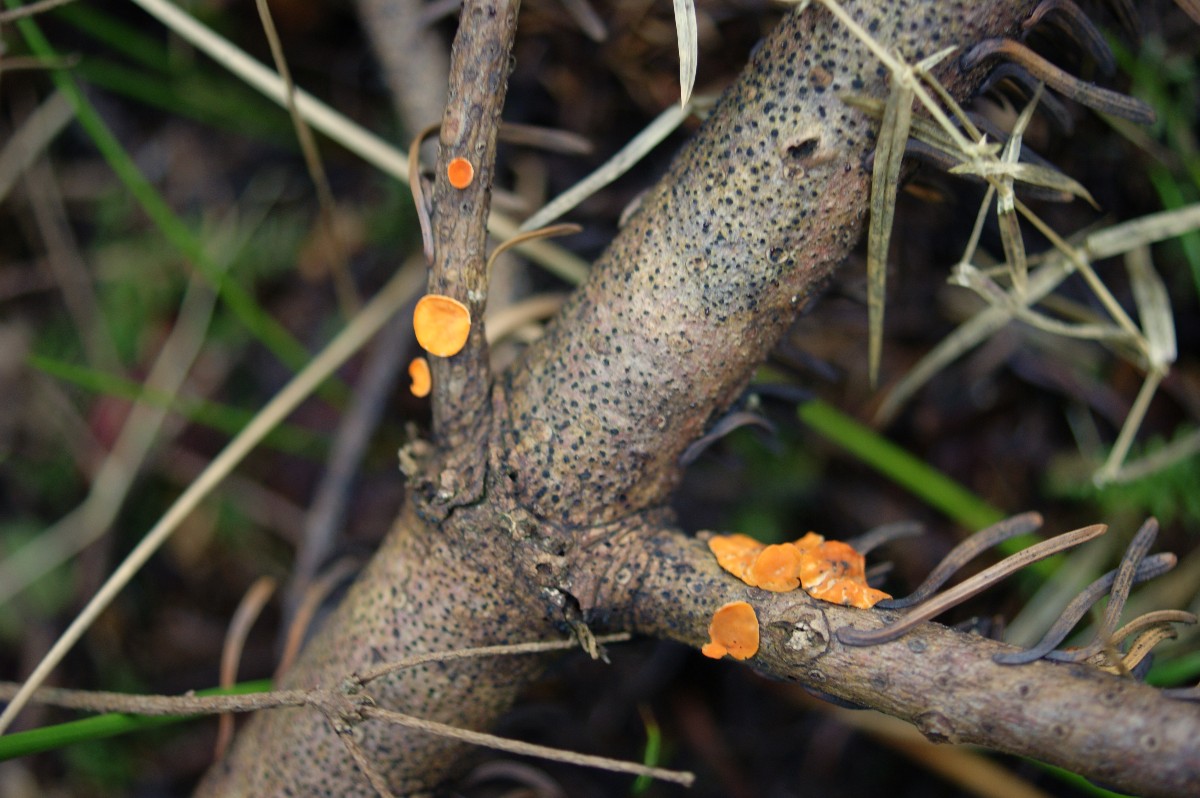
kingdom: Fungi
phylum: Ascomycota
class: Pezizomycetes
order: Pezizales
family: Sarcoscyphaceae
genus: Pithya
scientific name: Pithya vulgaris
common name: stor dukatbæger
